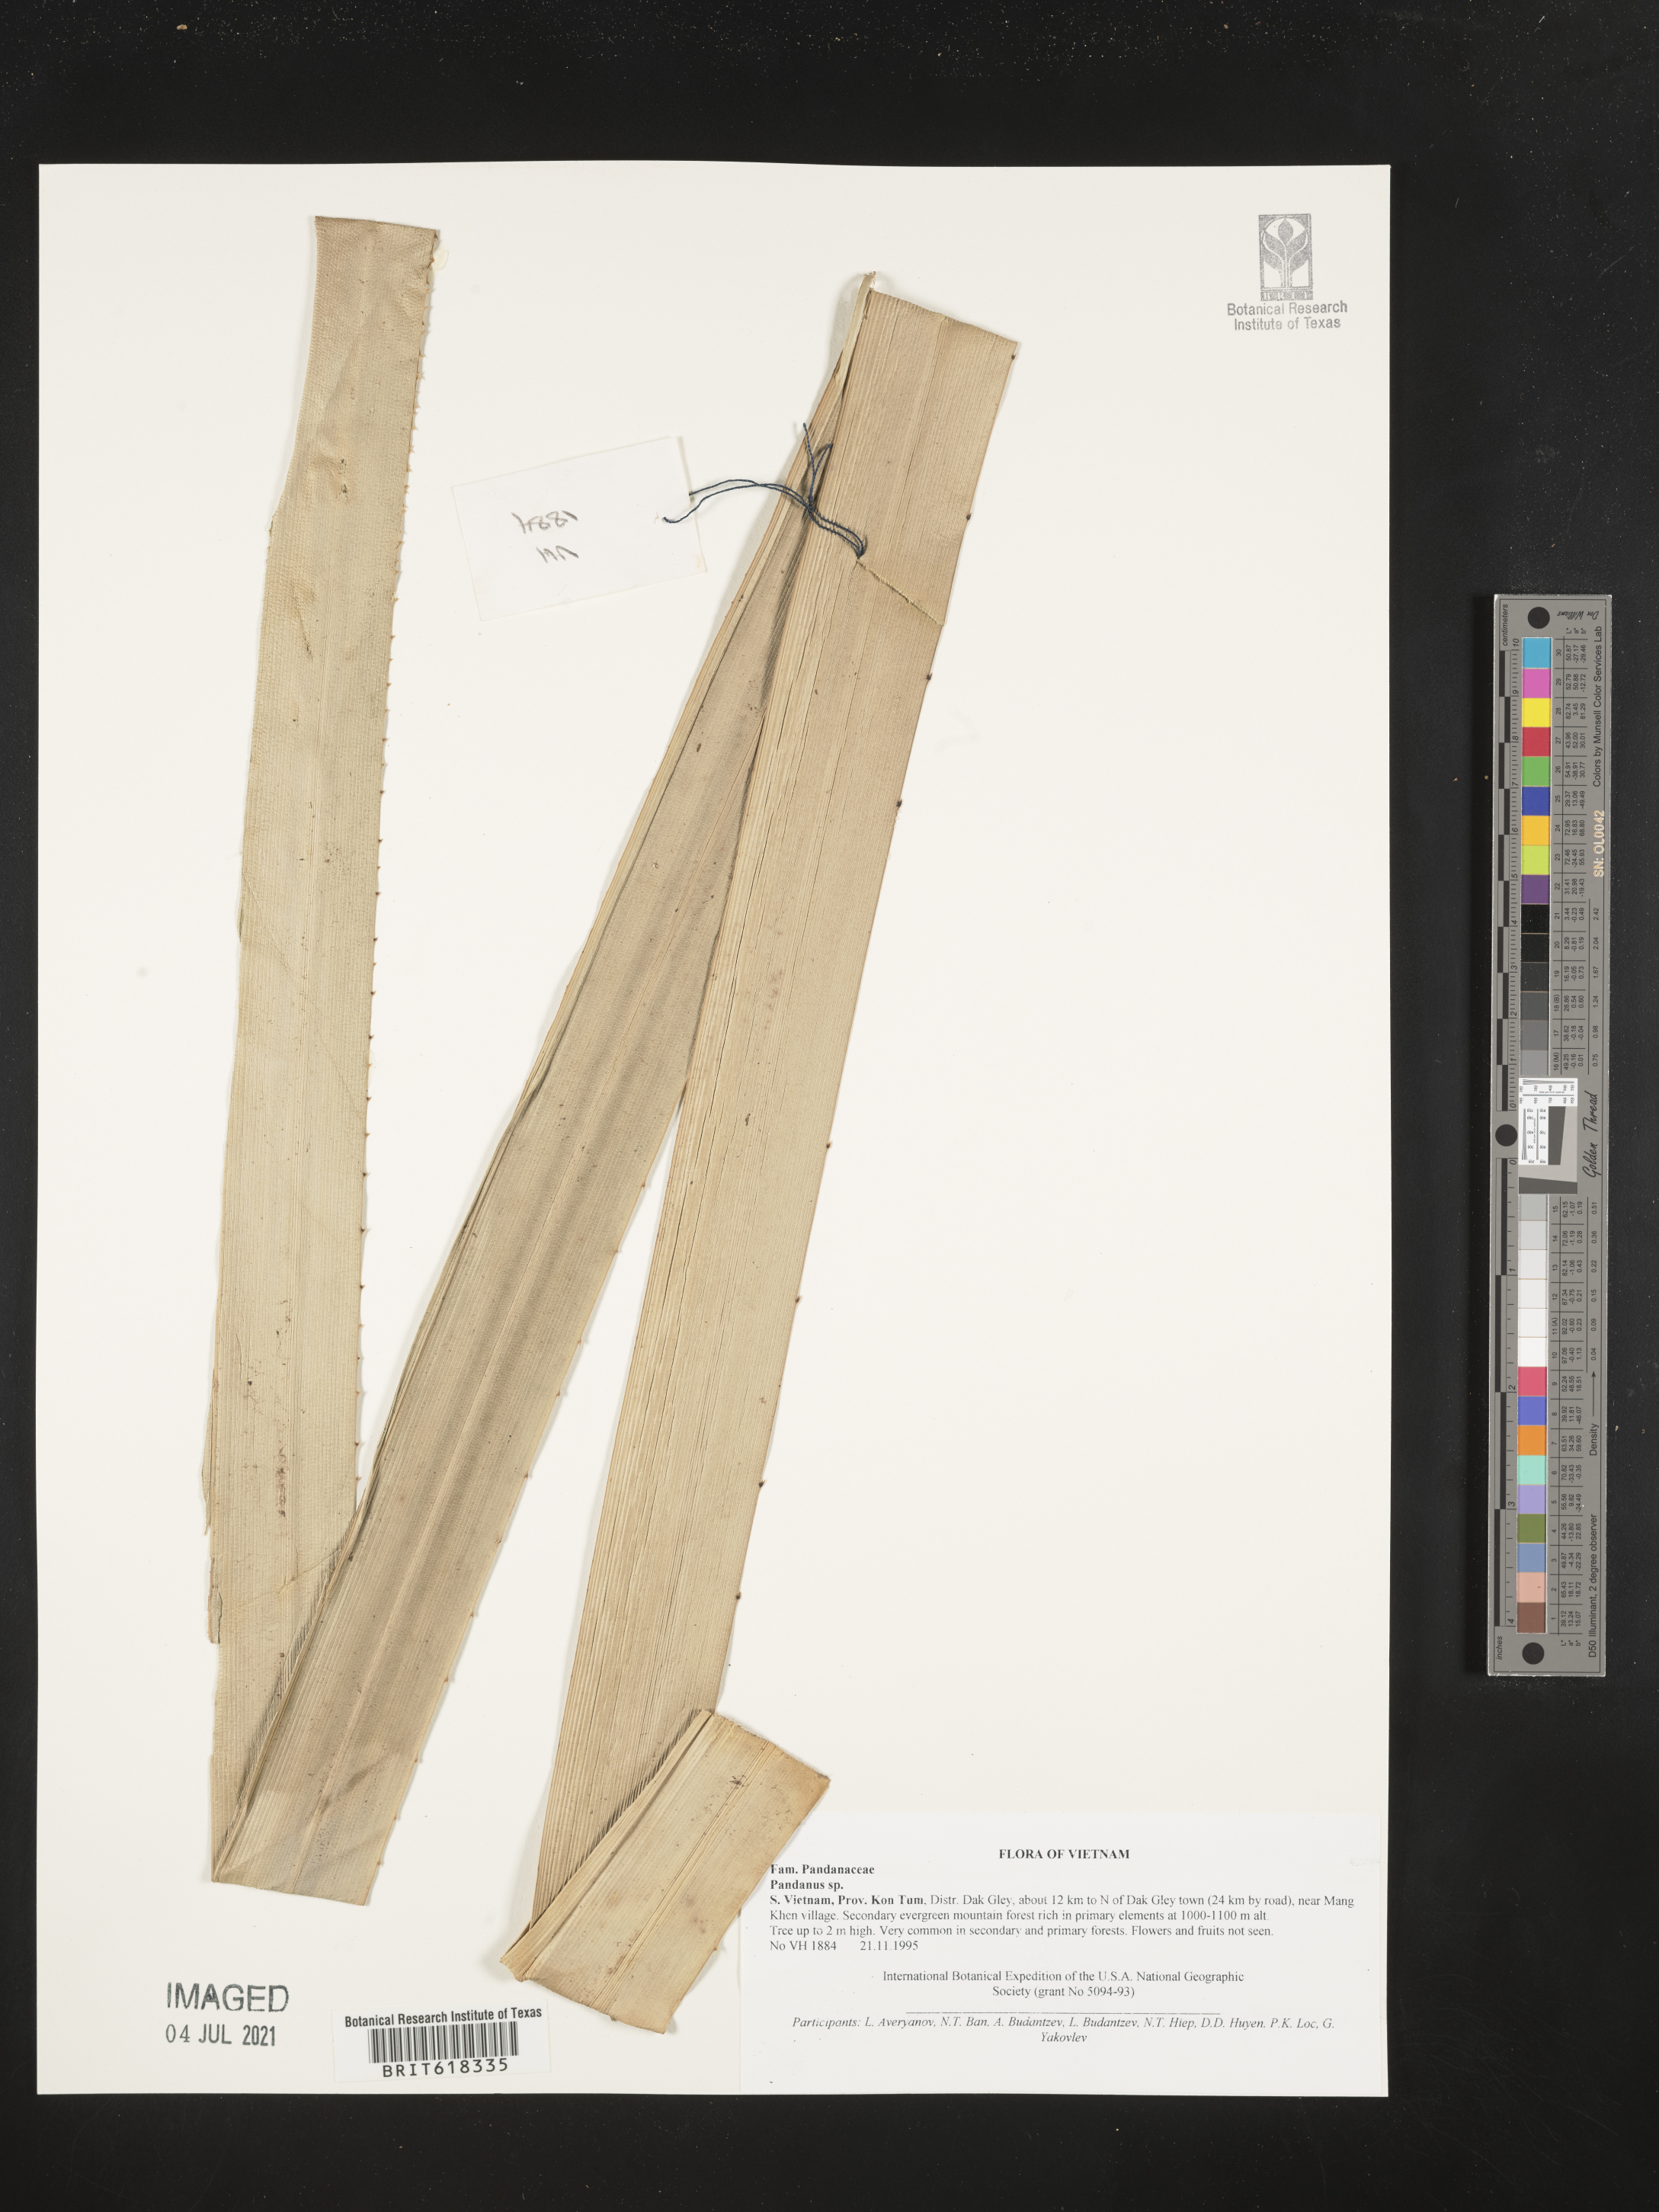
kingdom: Plantae
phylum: Tracheophyta
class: Liliopsida
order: Pandanales
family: Pandanaceae
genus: Pandanus
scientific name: Pandanus
